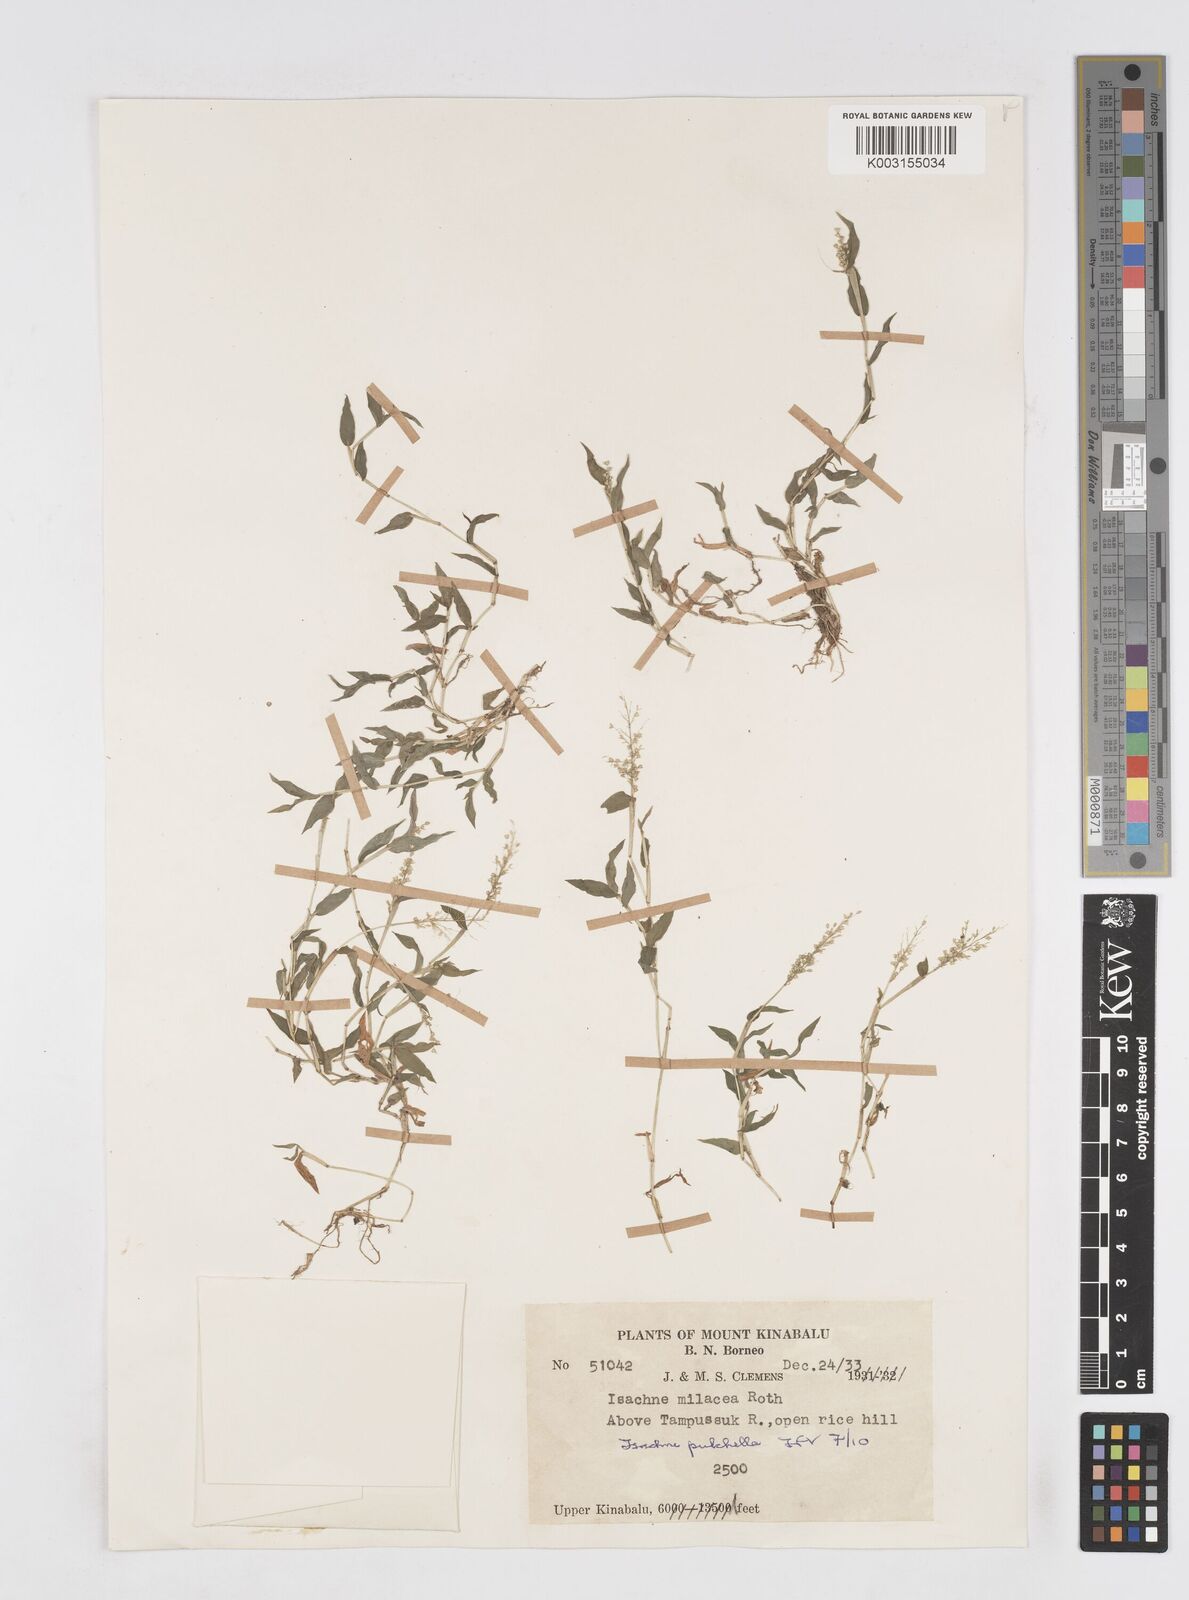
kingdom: Plantae
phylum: Tracheophyta
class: Liliopsida
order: Poales
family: Poaceae
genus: Isachne
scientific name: Isachne globosa
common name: Swamp millet
